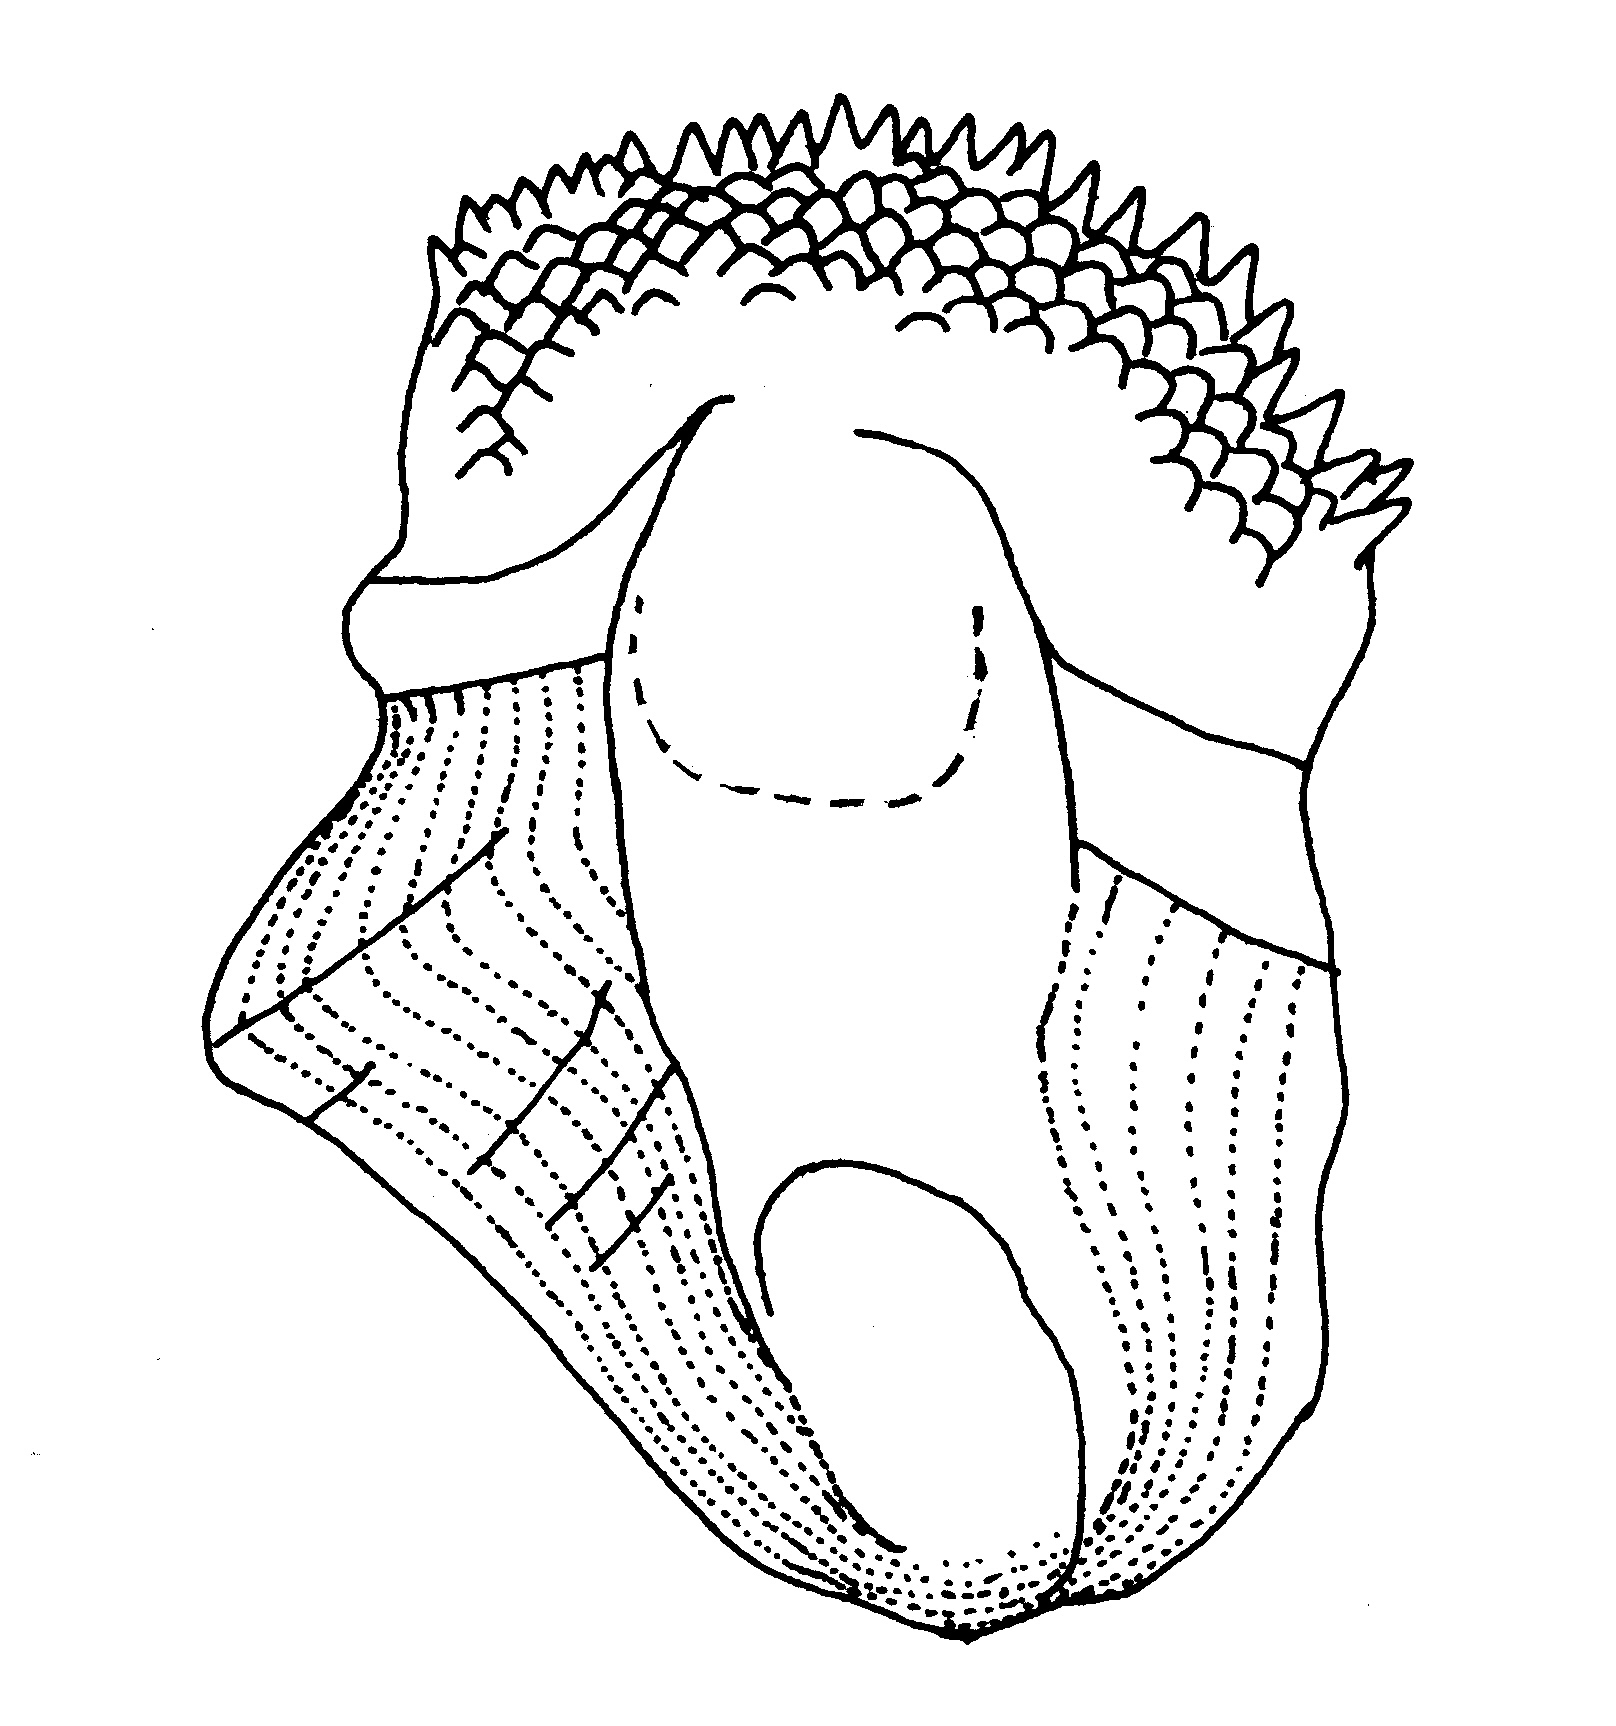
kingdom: Animalia
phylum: Chordata
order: Scorpaeniformes
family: Platycephalidae
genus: Rogadius
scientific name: Rogadius pristiger
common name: Thorny flathead
